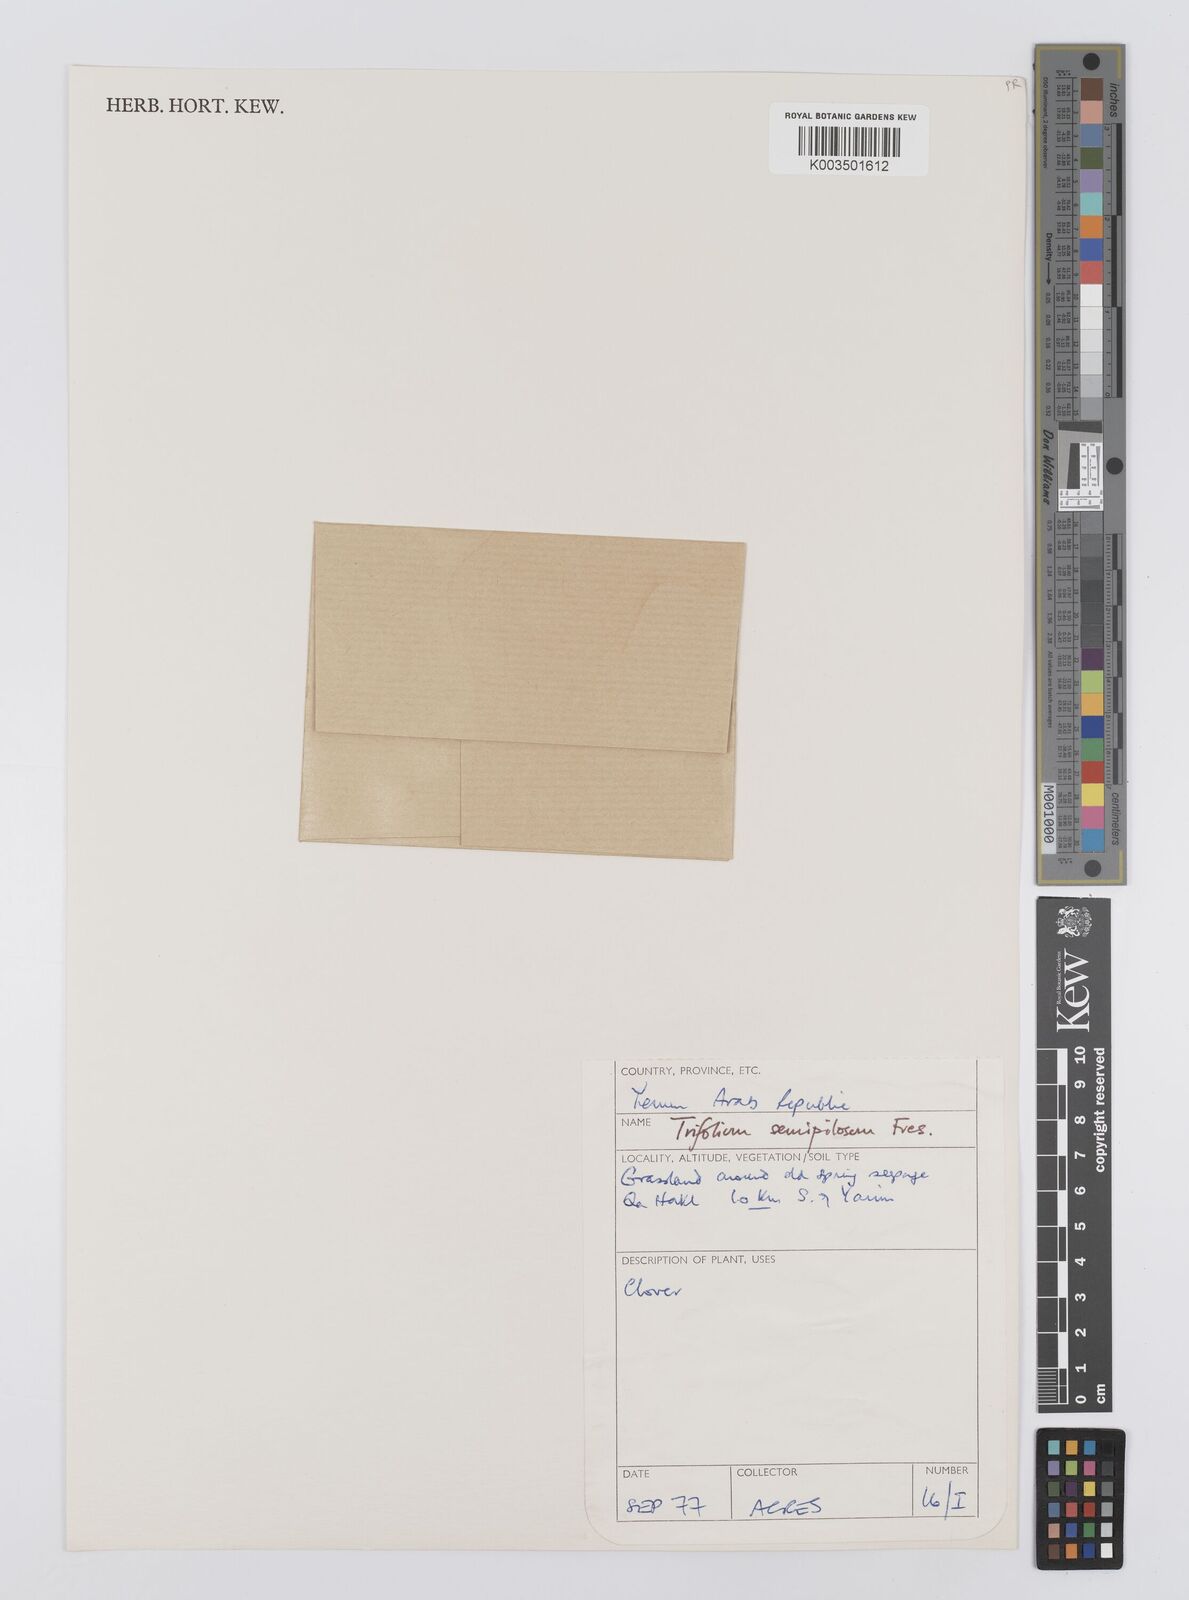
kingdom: Plantae
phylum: Tracheophyta
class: Magnoliopsida
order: Fabales
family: Fabaceae
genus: Trifolium
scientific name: Trifolium semipilosum
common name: Kenya clover
